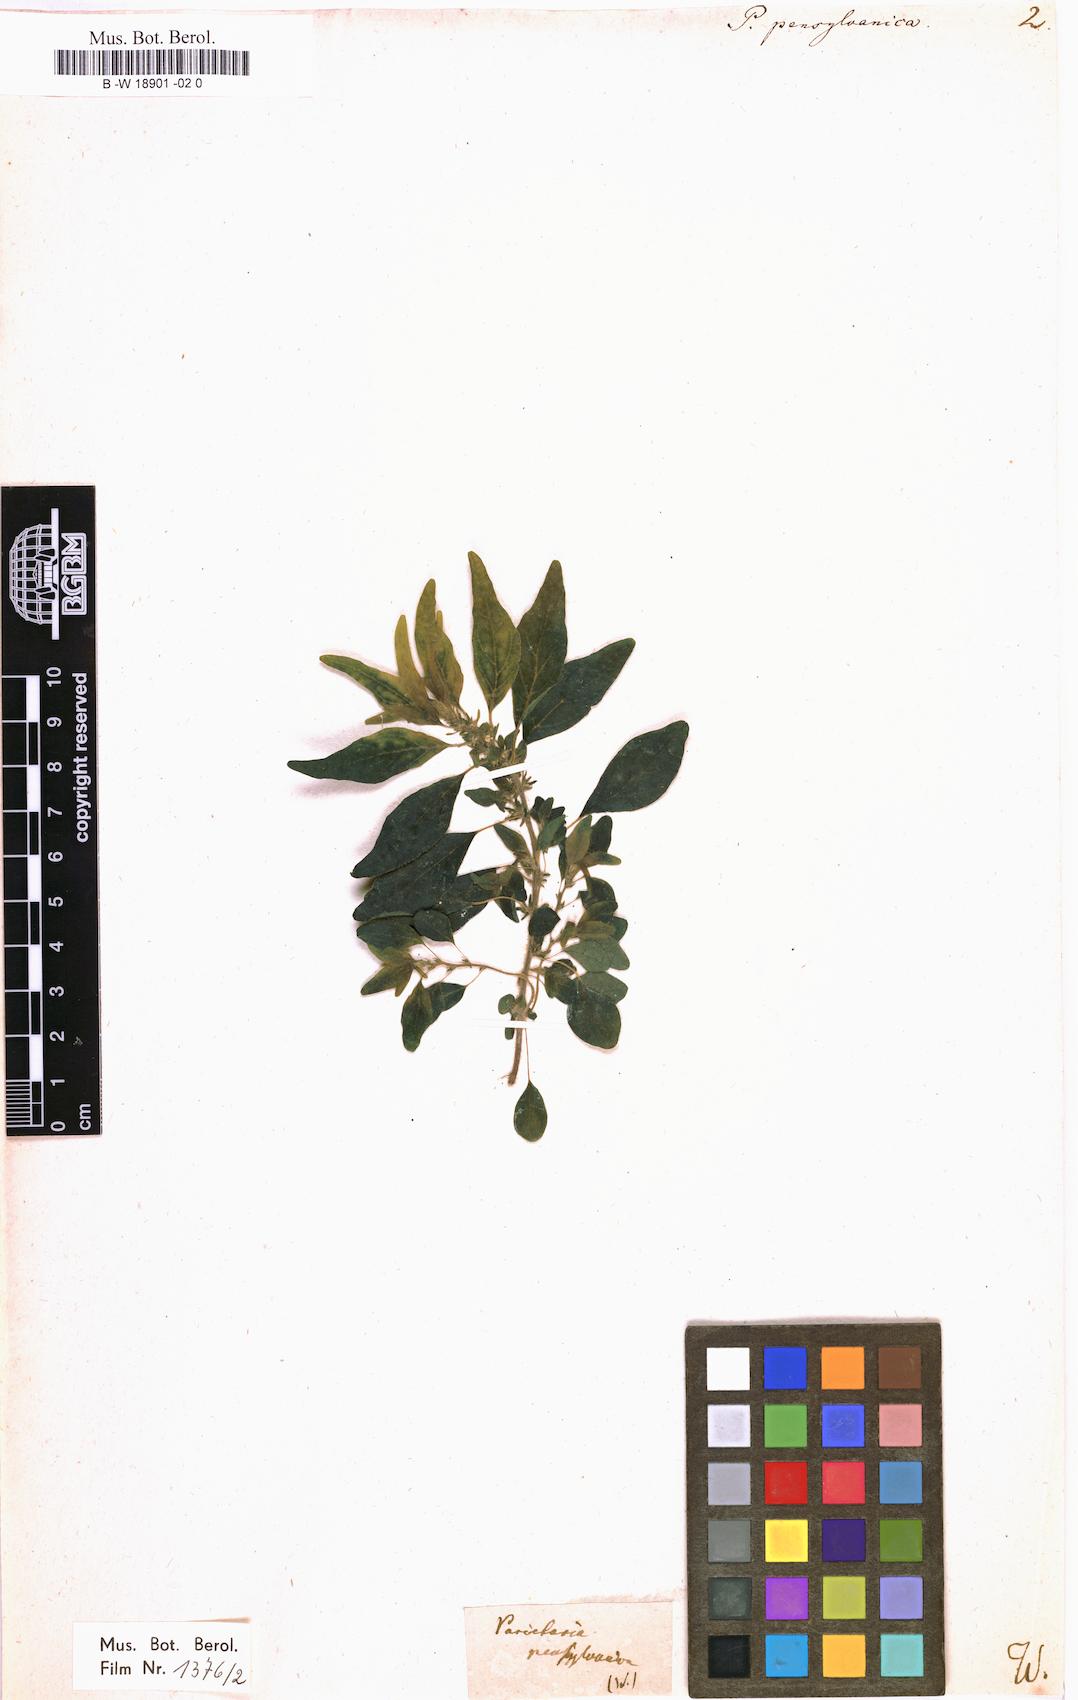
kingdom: Plantae
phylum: Tracheophyta
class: Magnoliopsida
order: Rosales
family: Urticaceae
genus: Parietaria
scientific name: Parietaria pensylvanica
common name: Pennsylvania pellitory
